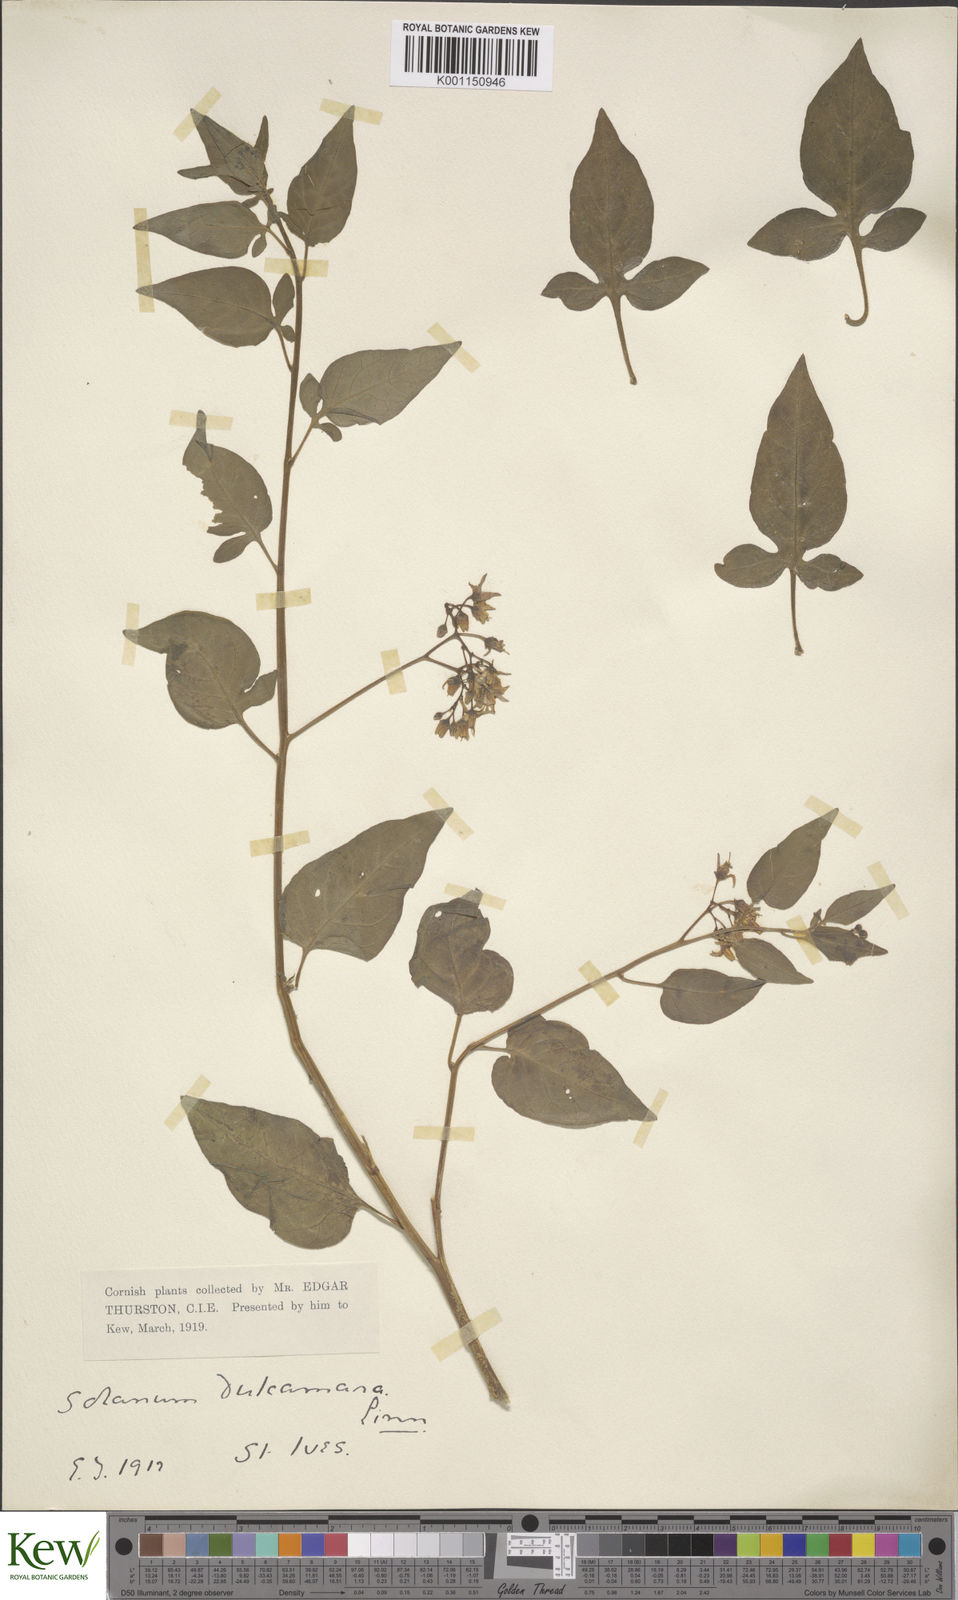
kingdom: Plantae
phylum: Tracheophyta
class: Magnoliopsida
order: Solanales
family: Solanaceae
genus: Solanum
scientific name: Solanum dulcamara
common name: Climbing nightshade
